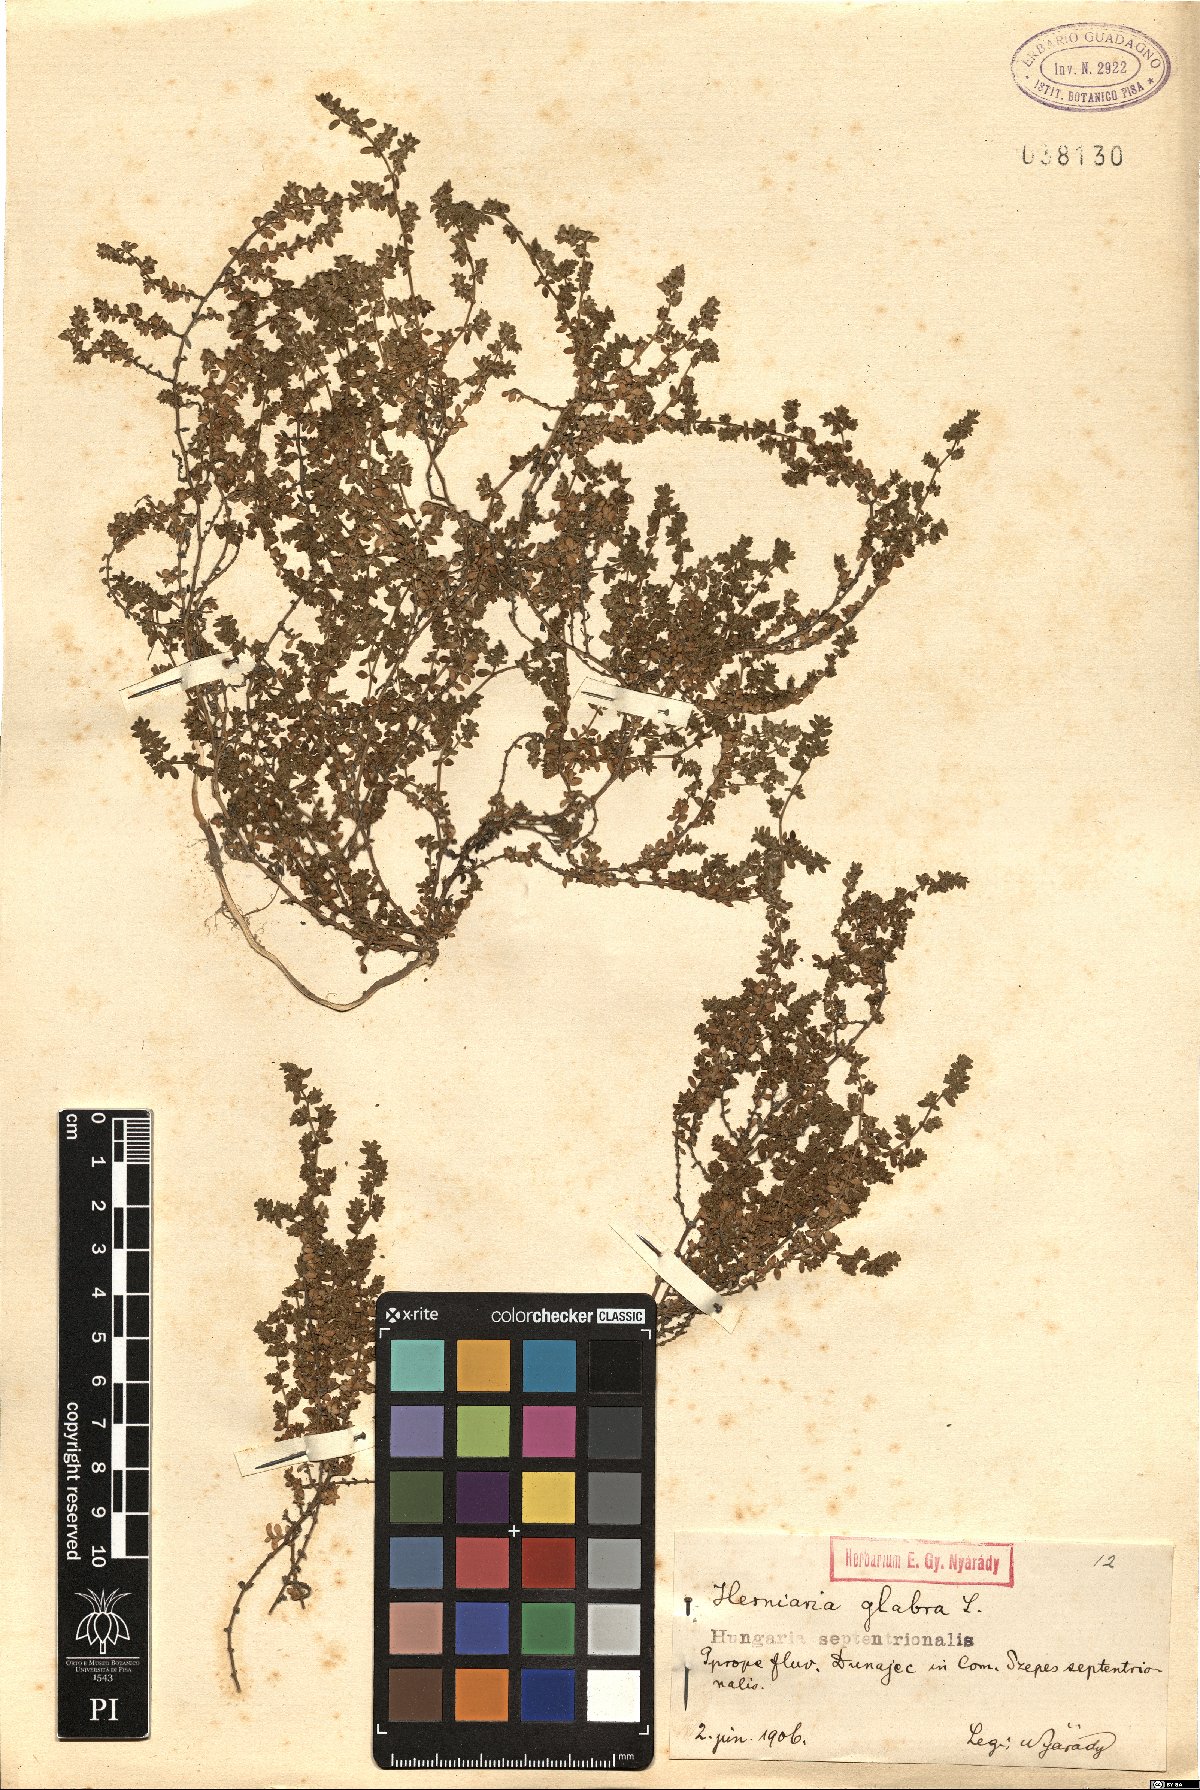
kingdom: Plantae
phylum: Tracheophyta
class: Magnoliopsida
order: Caryophyllales
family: Caryophyllaceae
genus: Herniaria
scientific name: Herniaria glabra
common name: Smooth rupturewort
